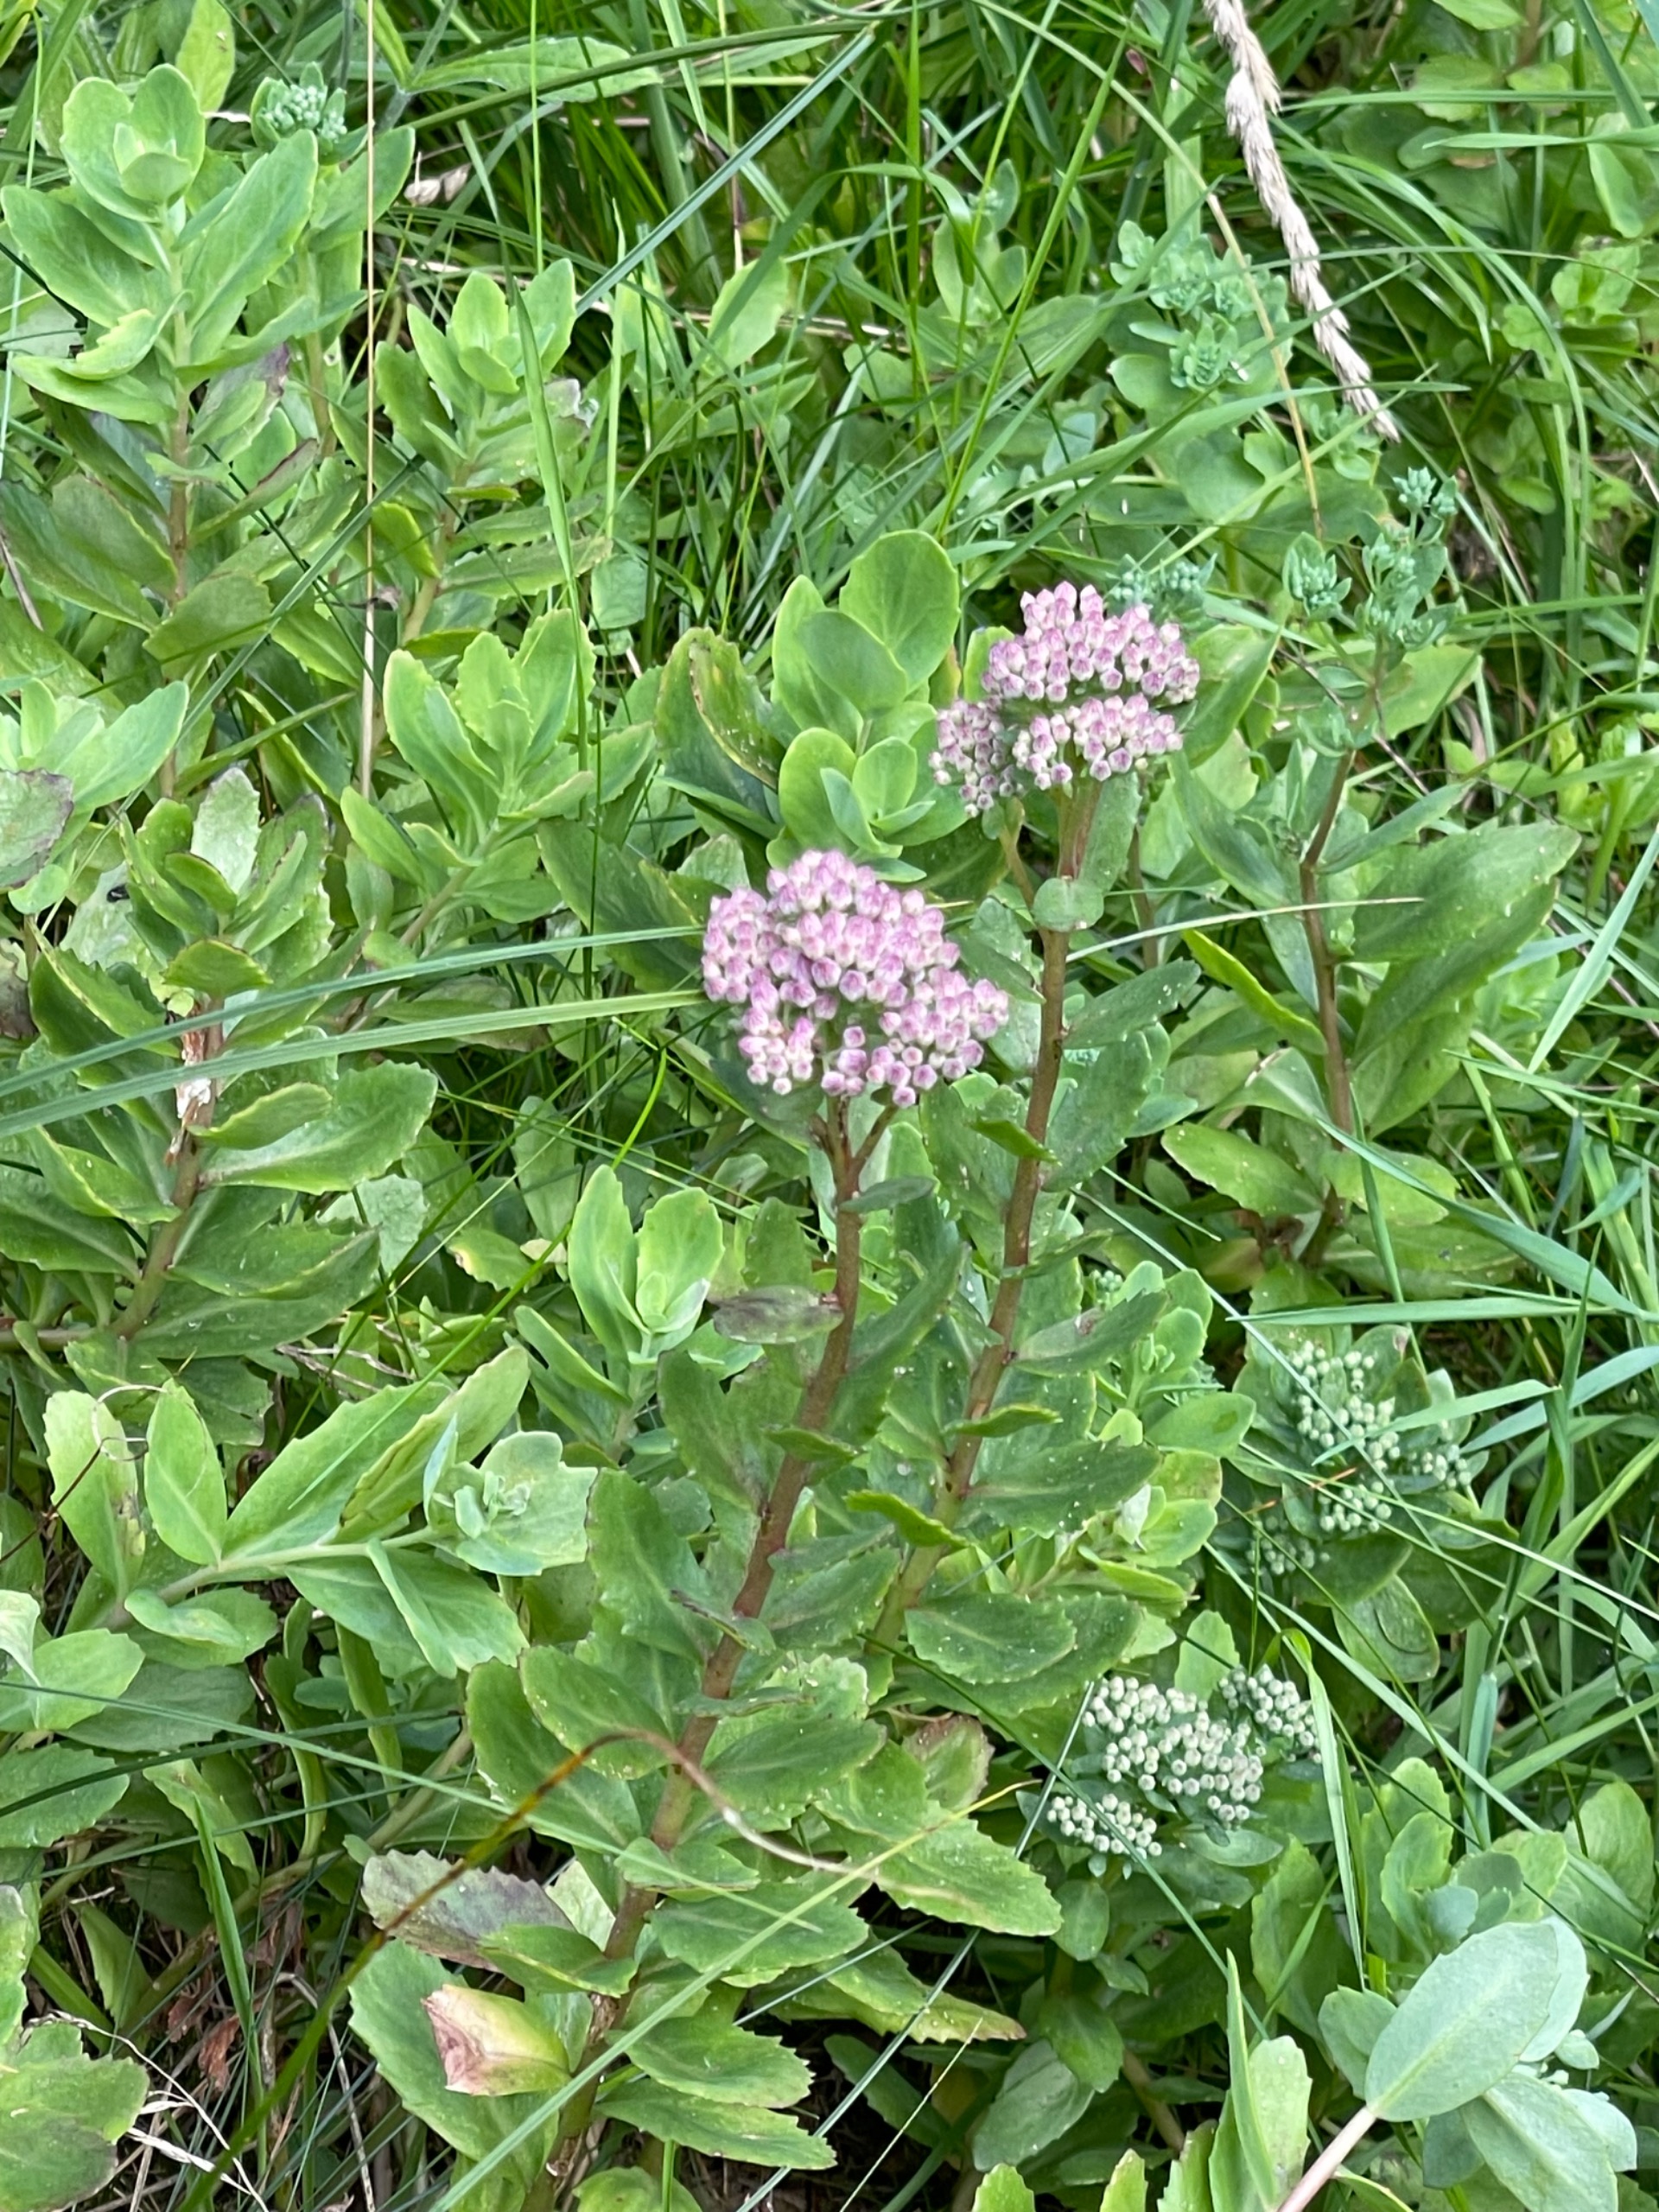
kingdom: Plantae
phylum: Tracheophyta
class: Magnoliopsida
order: Saxifragales
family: Crassulaceae
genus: Hylotelephium
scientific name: Hylotelephium
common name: Kinesisk sankthansurt × sankthansurt
